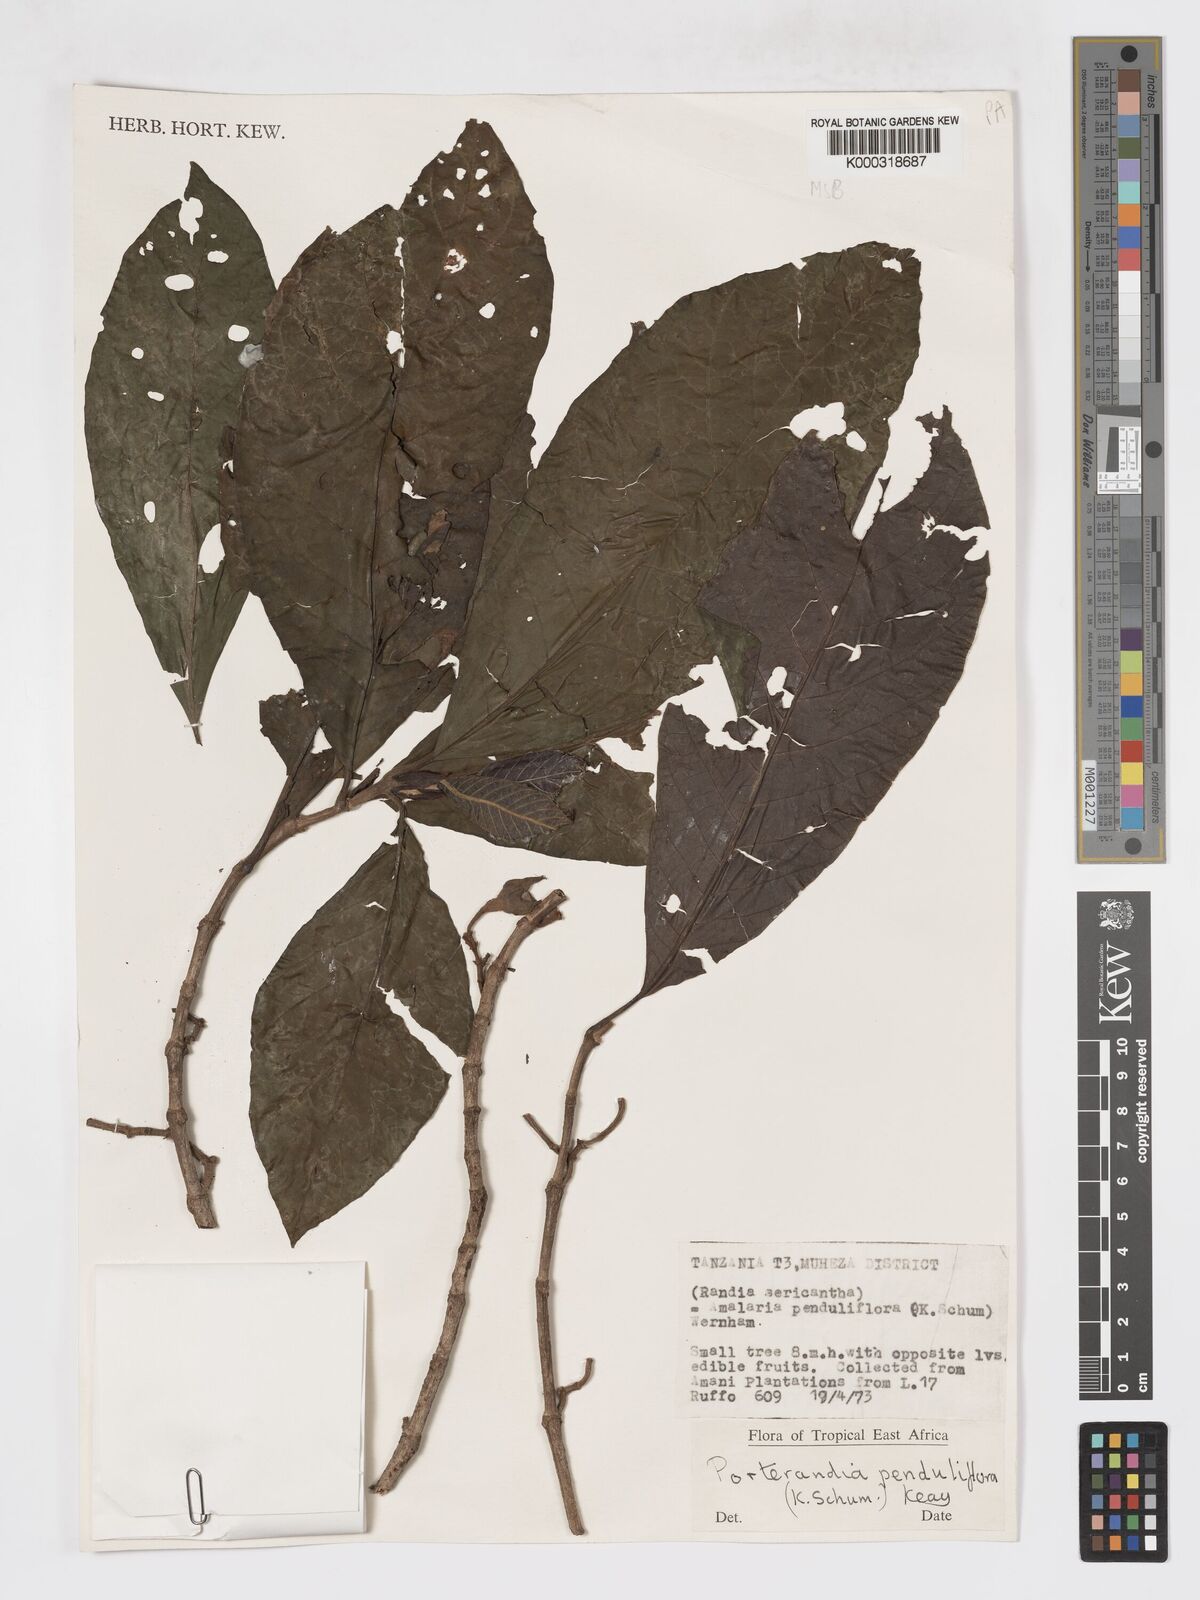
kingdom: Plantae
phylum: Tracheophyta
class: Magnoliopsida
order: Gentianales
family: Rubiaceae
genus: Aoranthe
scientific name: Aoranthe penduliflora
